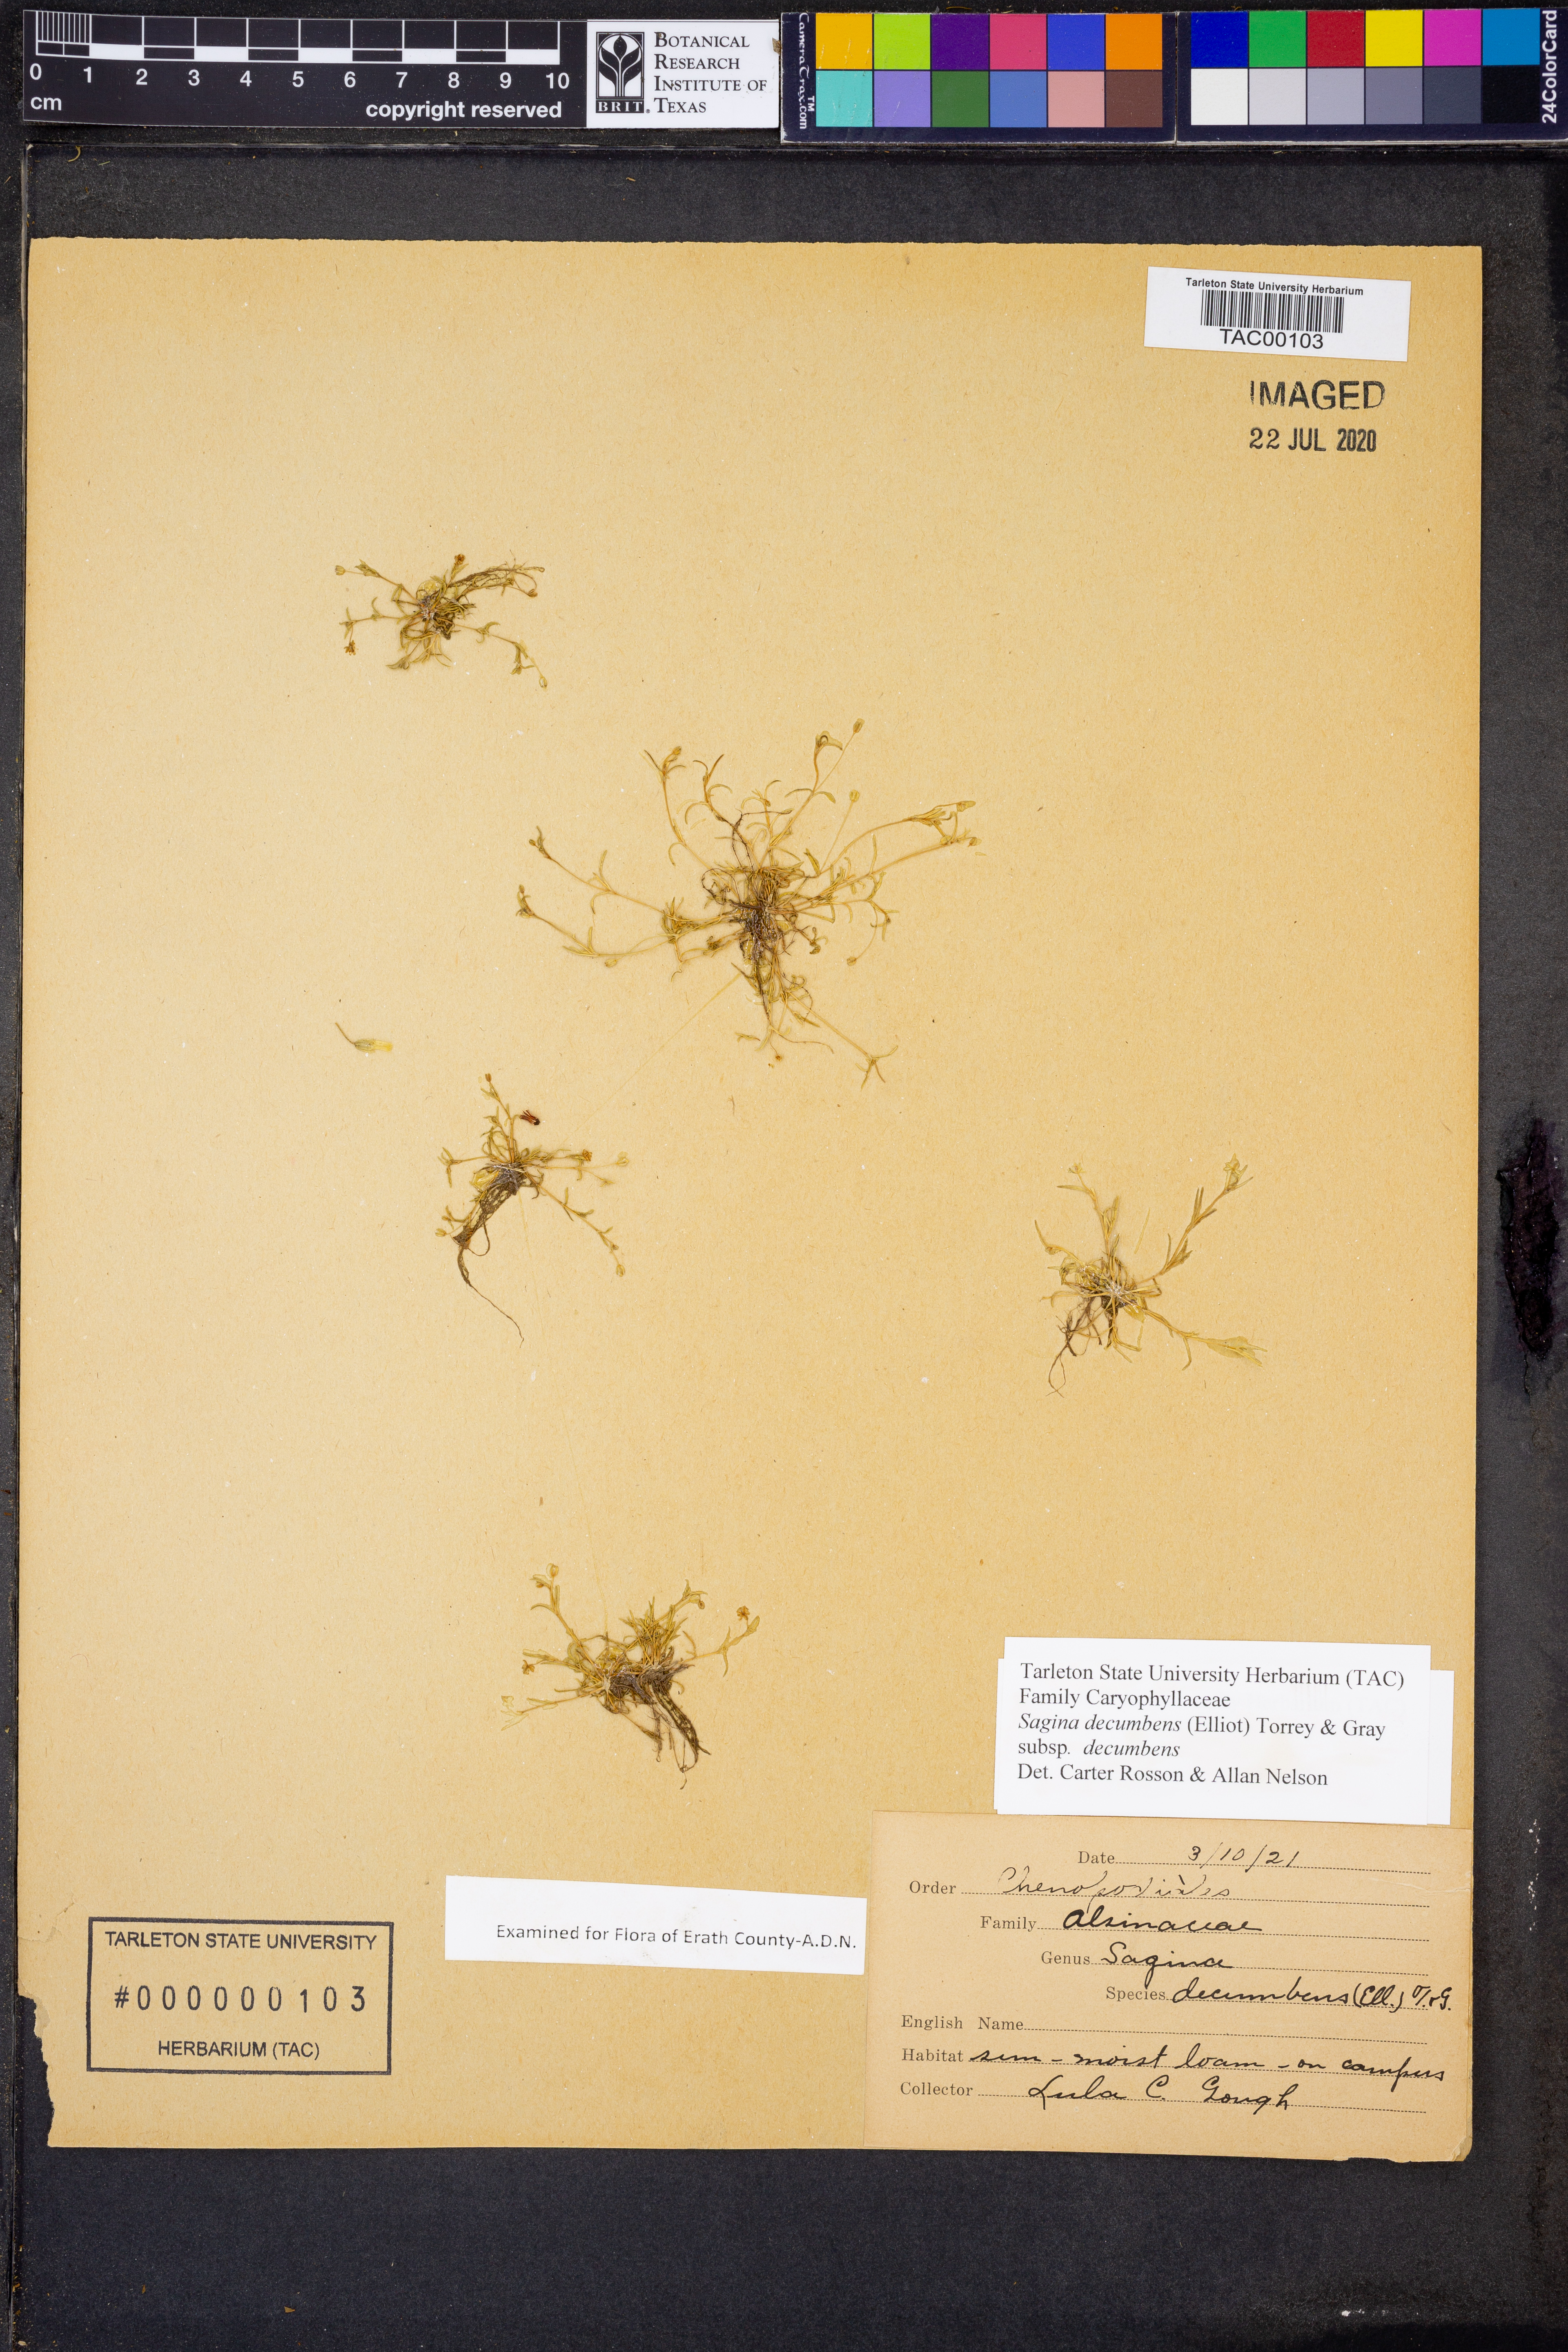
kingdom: Plantae
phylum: Tracheophyta
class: Magnoliopsida
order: Caryophyllales
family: Caryophyllaceae
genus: Sagina
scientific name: Sagina decumbens
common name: Decumbent pearlwort
